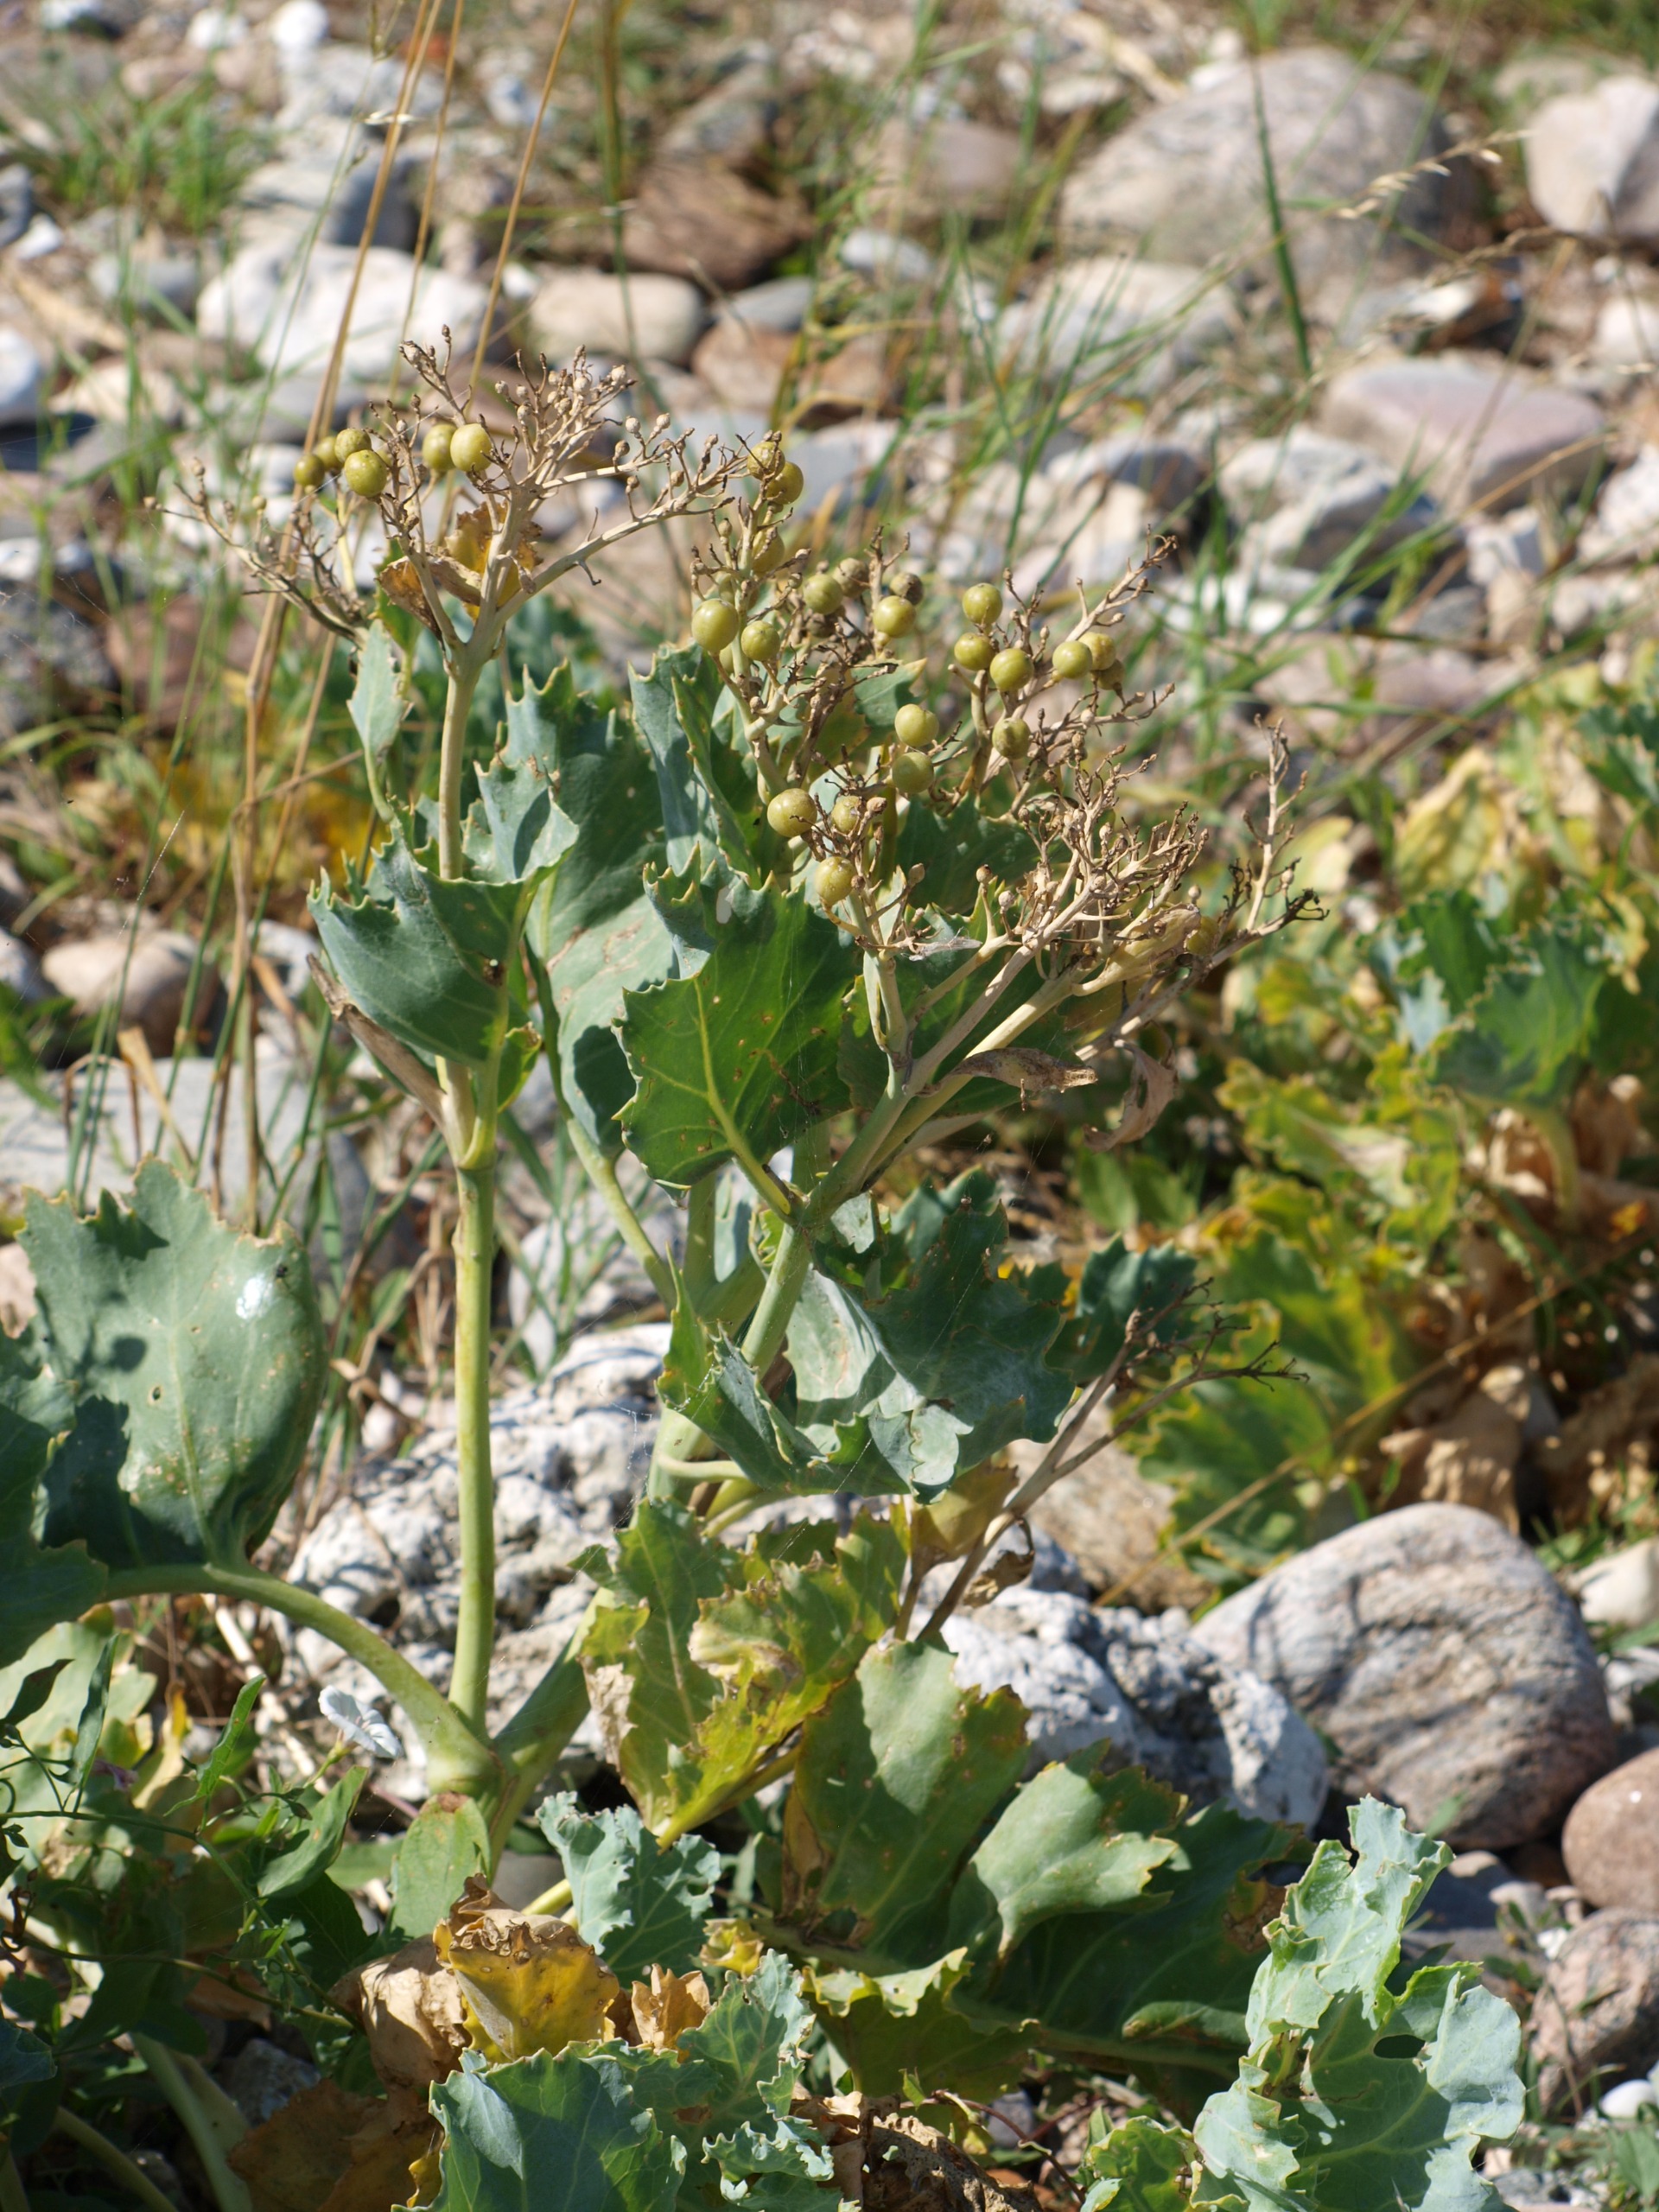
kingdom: Plantae
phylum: Tracheophyta
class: Magnoliopsida
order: Brassicales
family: Brassicaceae
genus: Crambe
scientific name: Crambe maritima
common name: Strandkål
